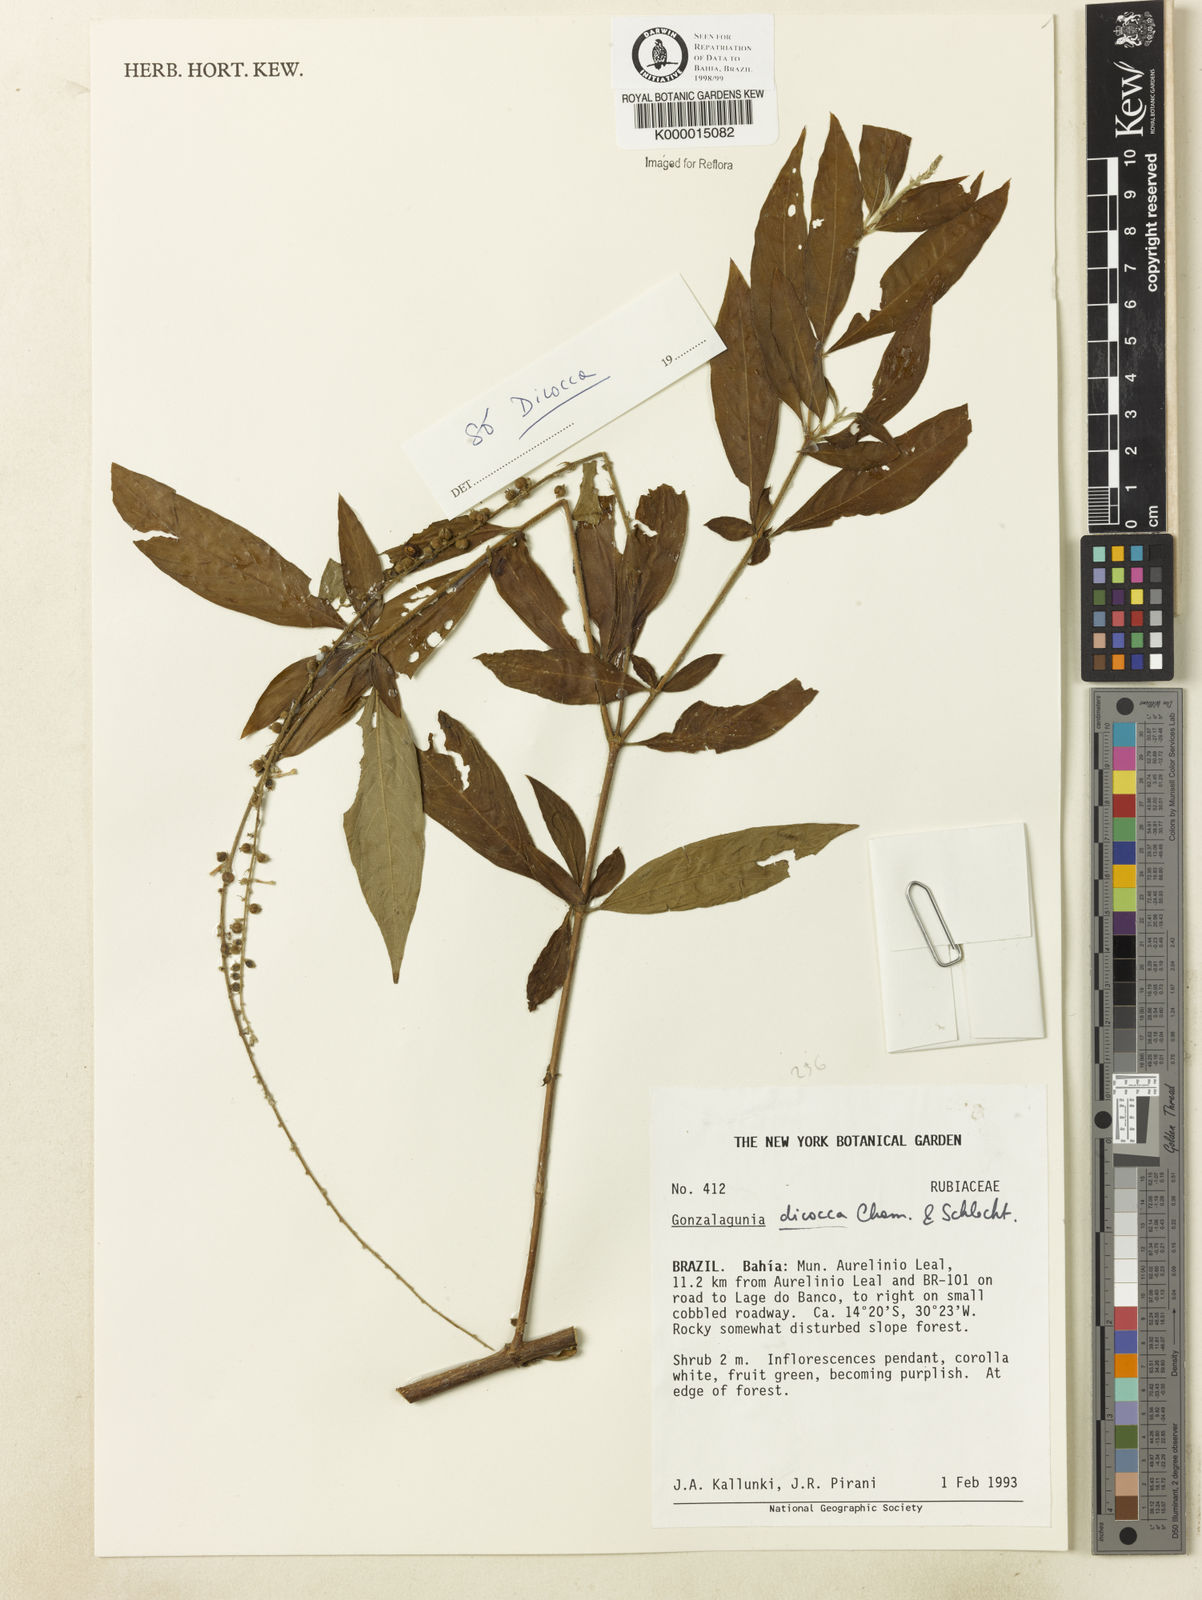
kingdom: Plantae
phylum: Tracheophyta
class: Magnoliopsida
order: Gentianales
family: Rubiaceae
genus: Gonzalagunia
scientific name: Gonzalagunia dicocca
